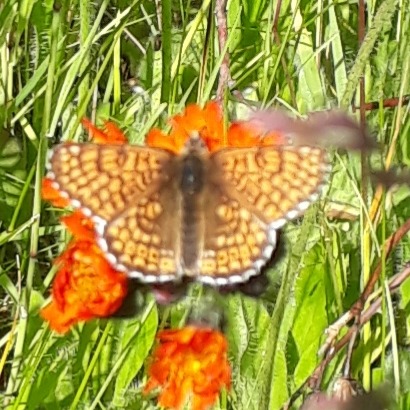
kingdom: Animalia
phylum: Arthropoda
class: Insecta
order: Lepidoptera
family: Nymphalidae
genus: Melitaea
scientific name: Melitaea cinxia
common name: Okkergul pletvinge
